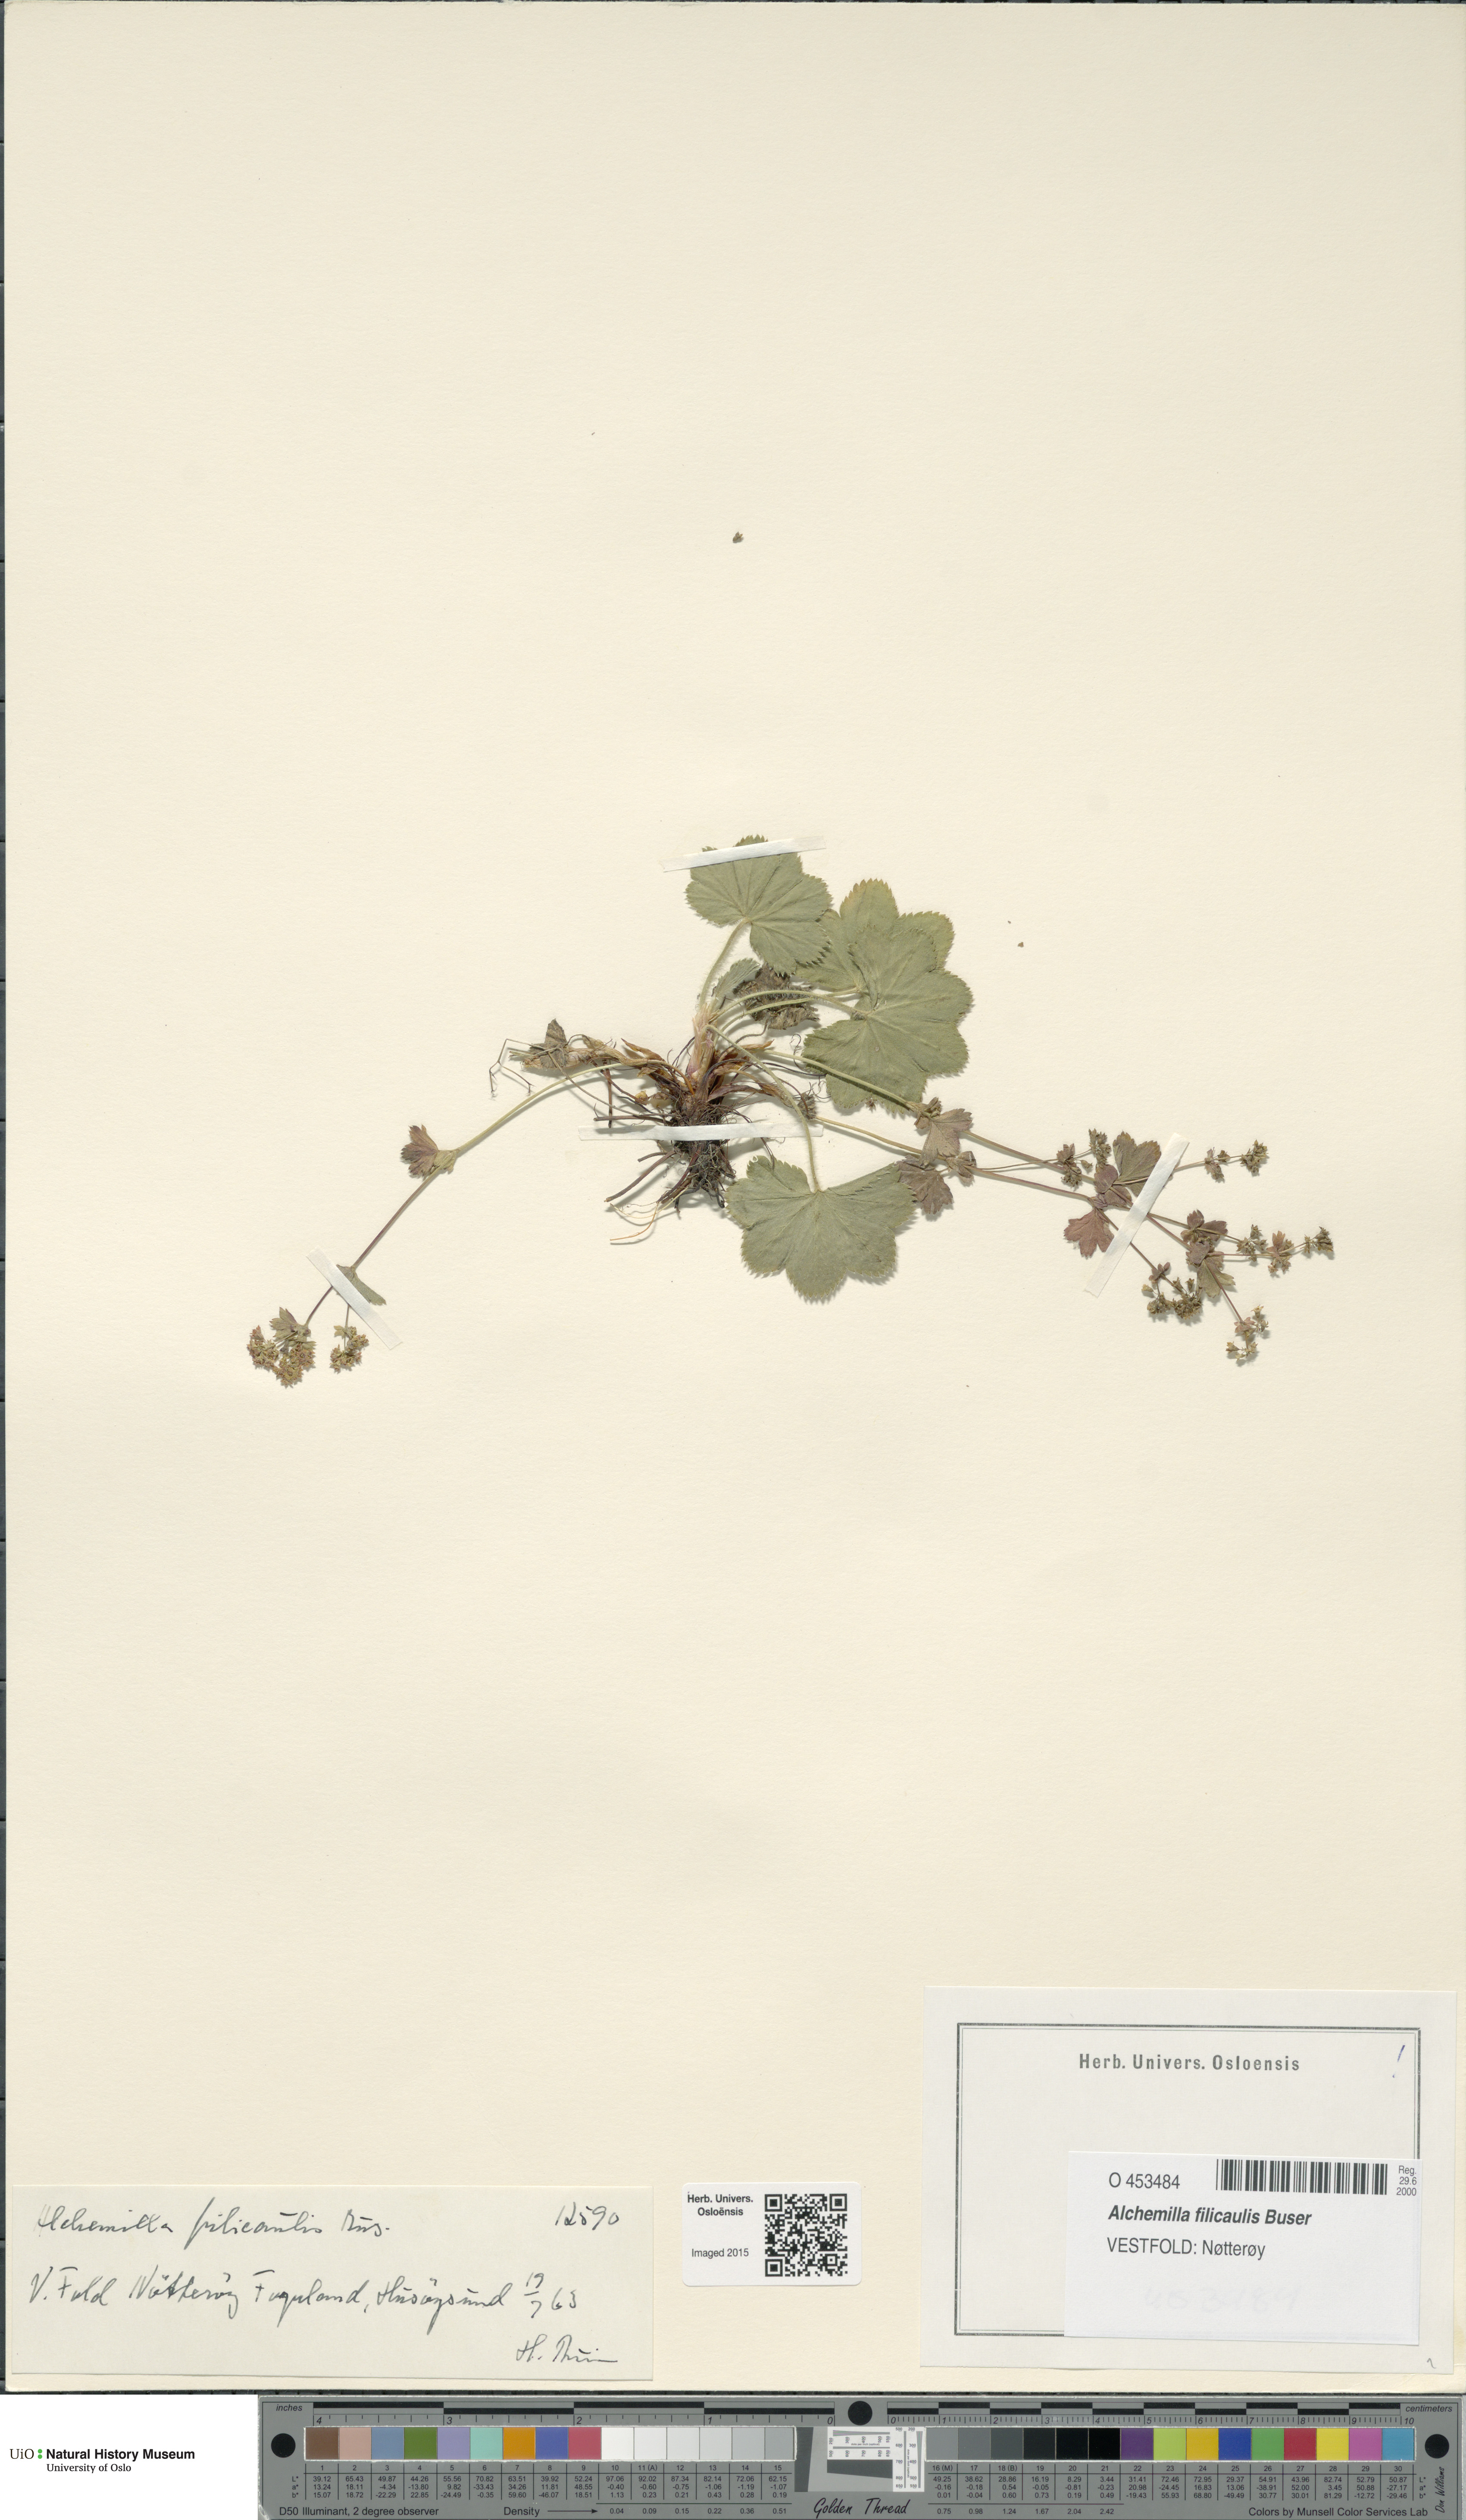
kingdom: Plantae
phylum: Tracheophyta
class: Magnoliopsida
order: Rosales
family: Rosaceae
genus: Alchemilla
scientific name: Alchemilla filicaulis
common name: Hairy lady's-mantle
